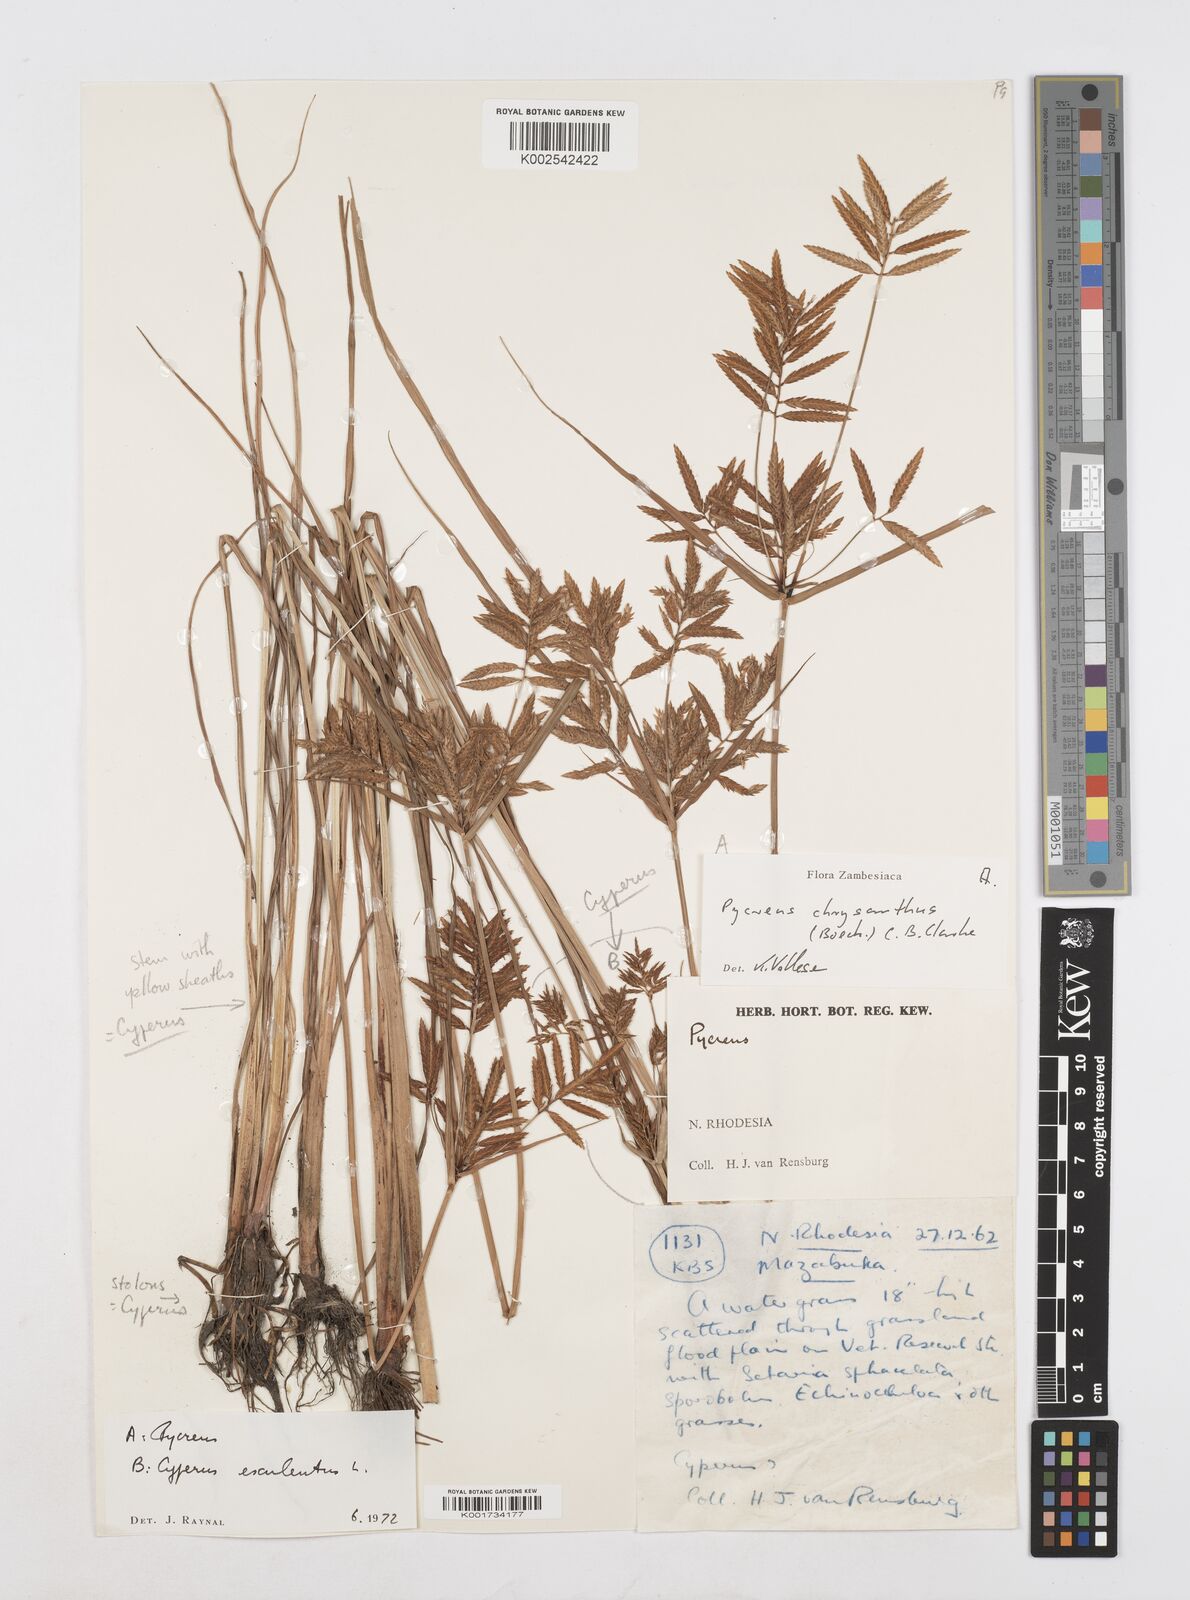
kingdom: Plantae
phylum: Tracheophyta
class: Liliopsida
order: Poales
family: Cyperaceae
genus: Cyperus
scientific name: Cyperus chrysanthus
